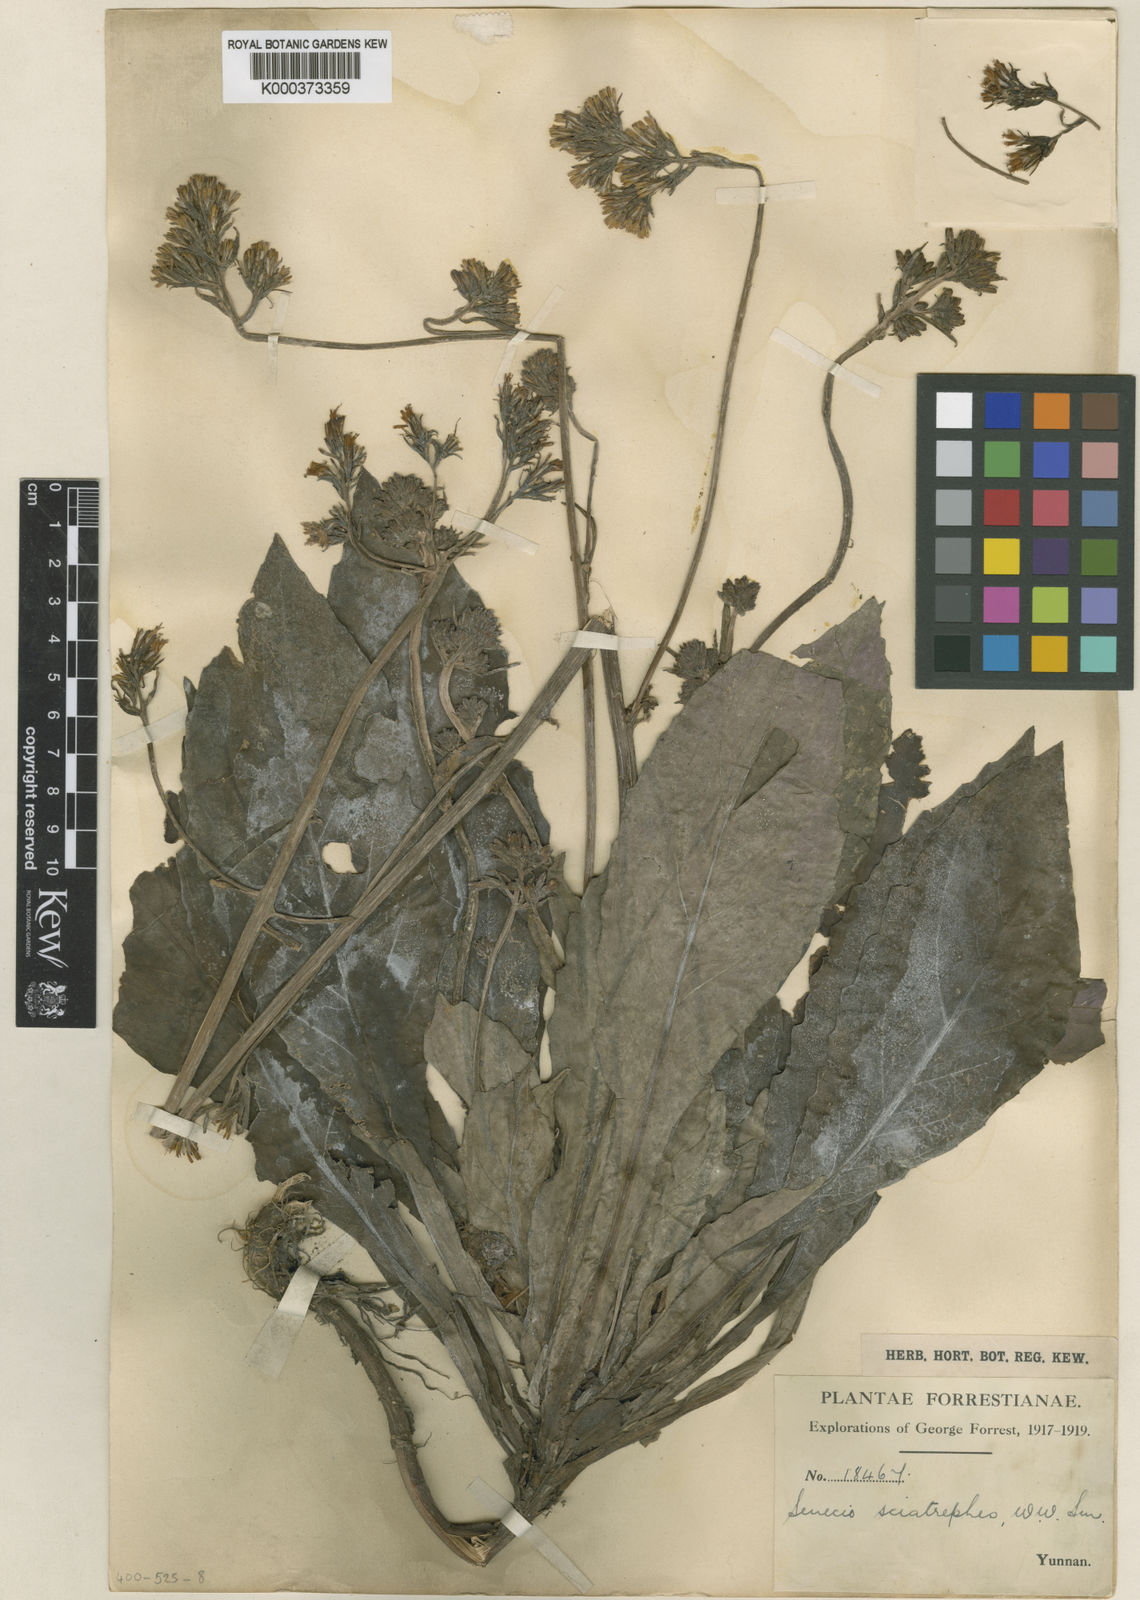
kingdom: Plantae
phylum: Tracheophyta
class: Magnoliopsida
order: Asterales
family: Asteraceae
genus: Synotis
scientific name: Synotis sciatrephes
